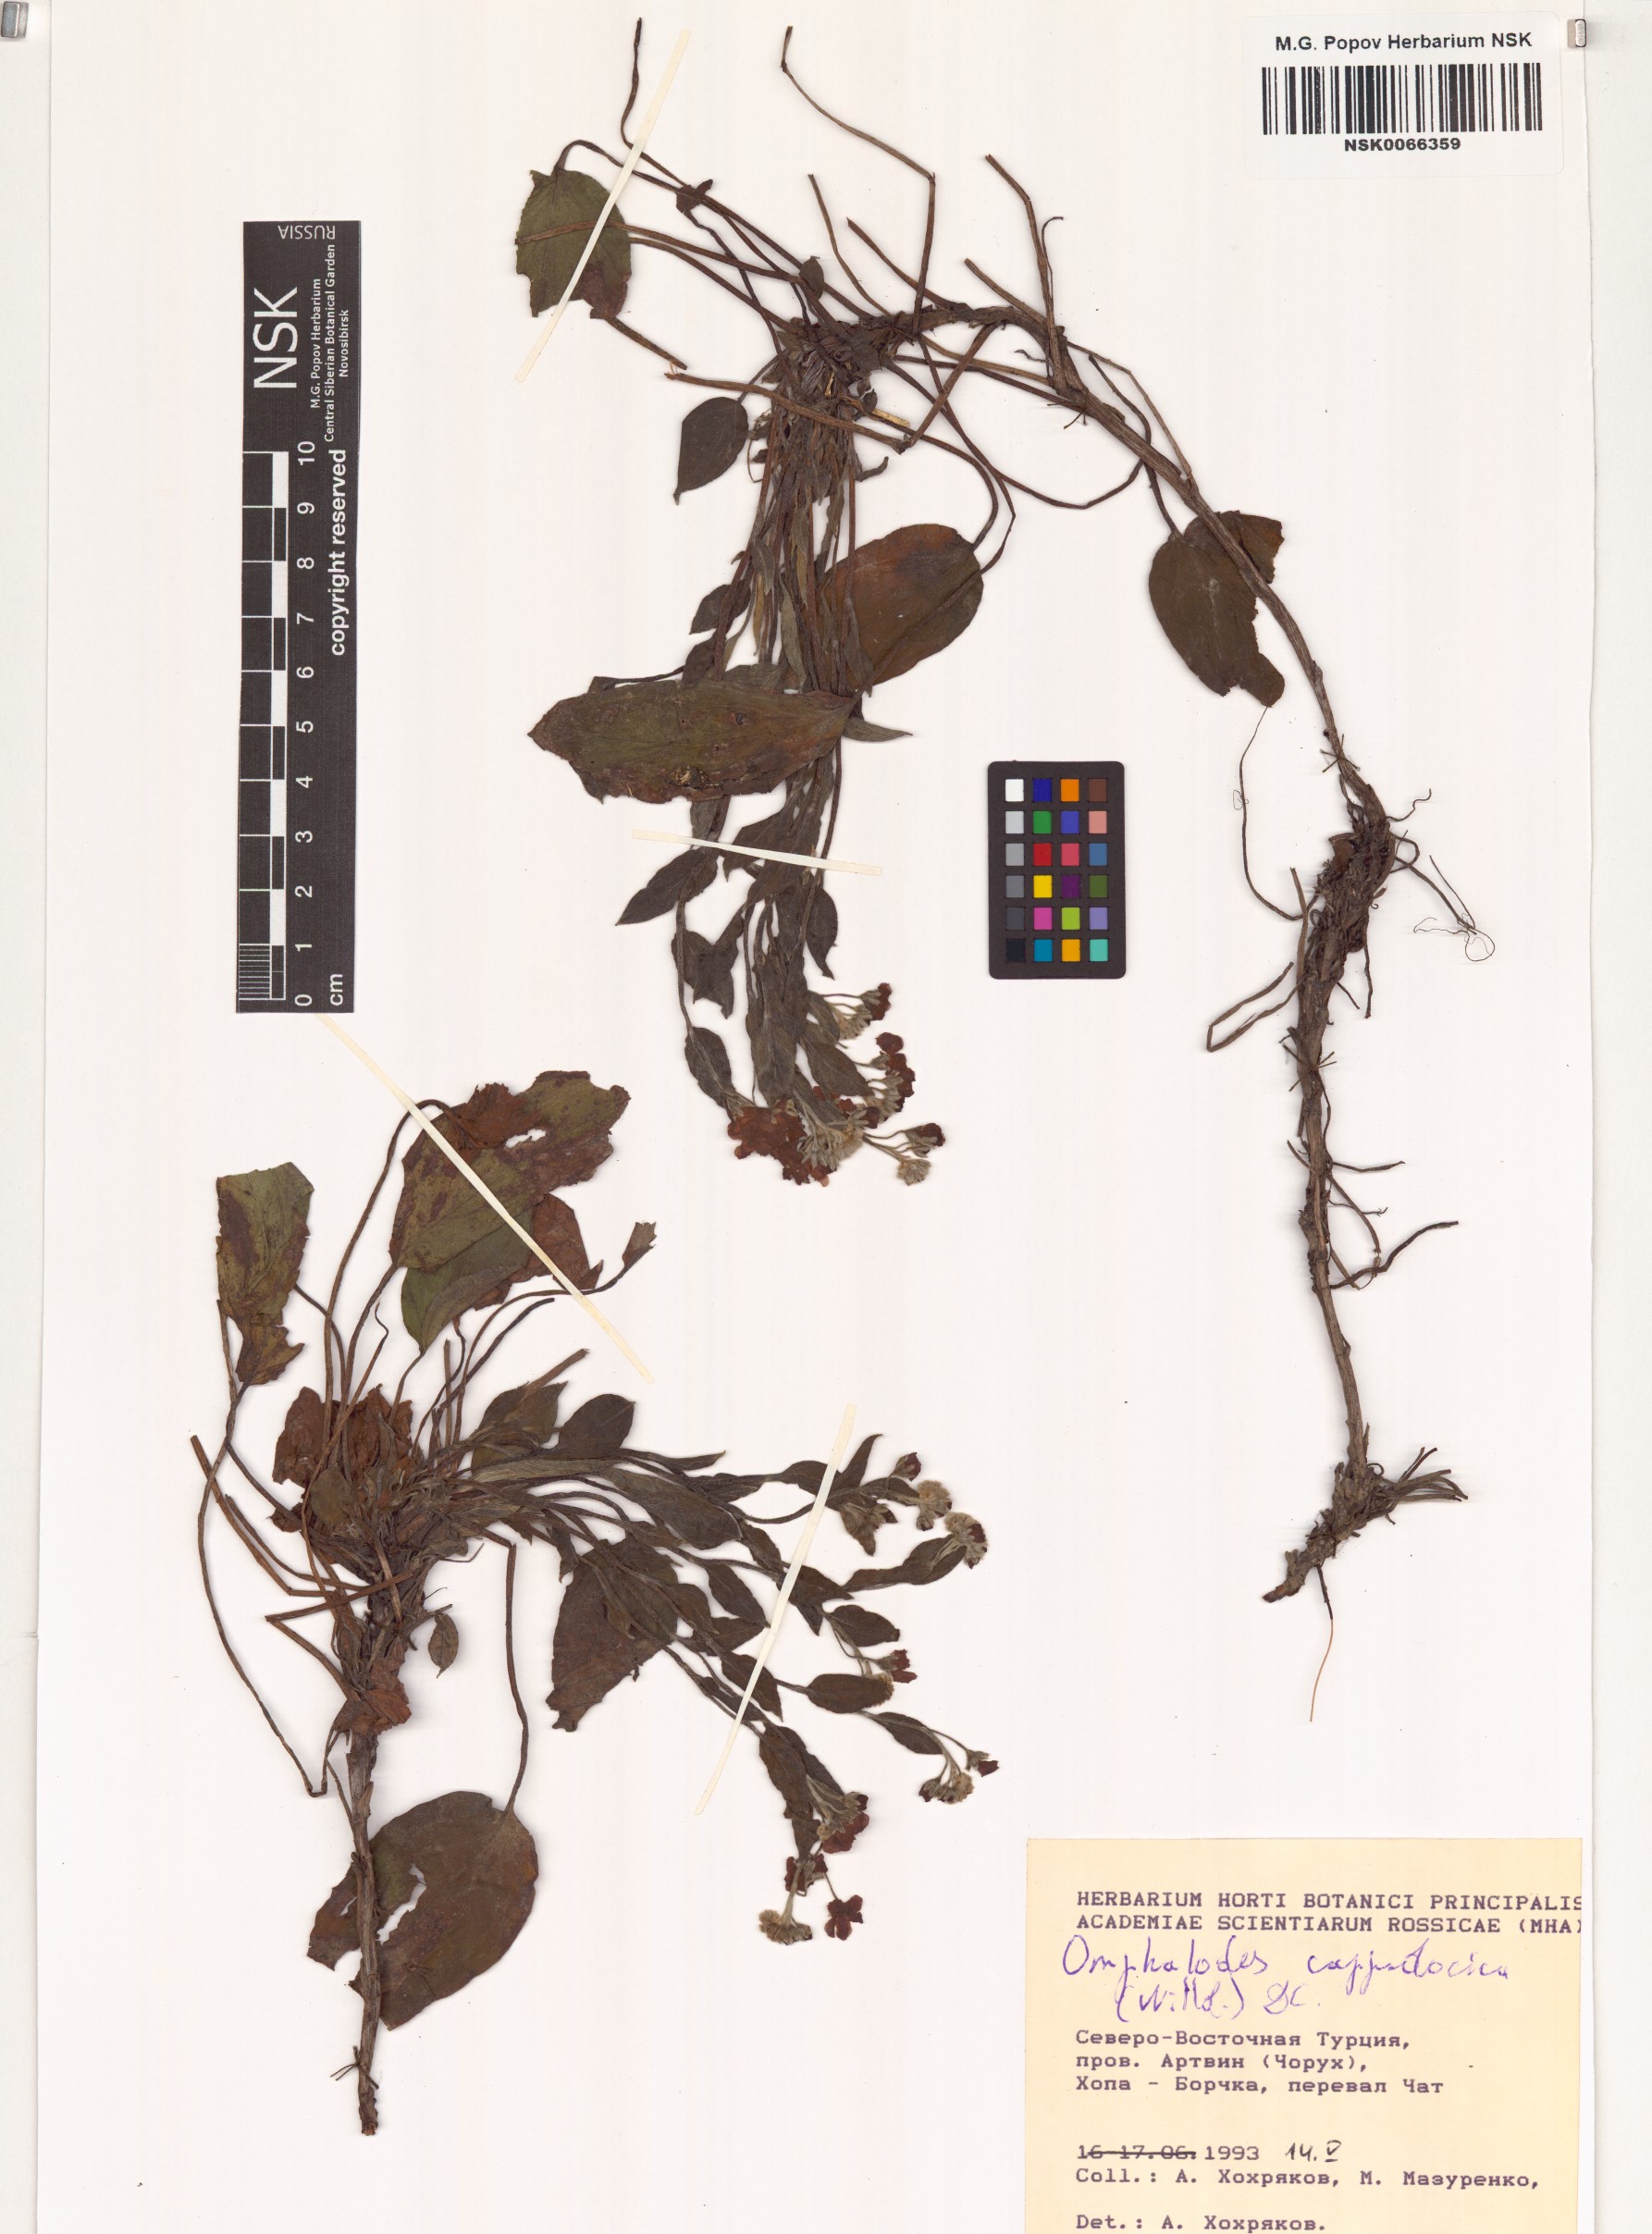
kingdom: Plantae
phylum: Tracheophyta
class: Magnoliopsida
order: Boraginales
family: Boraginaceae
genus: Omphalodes
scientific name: Omphalodes cappadocica
